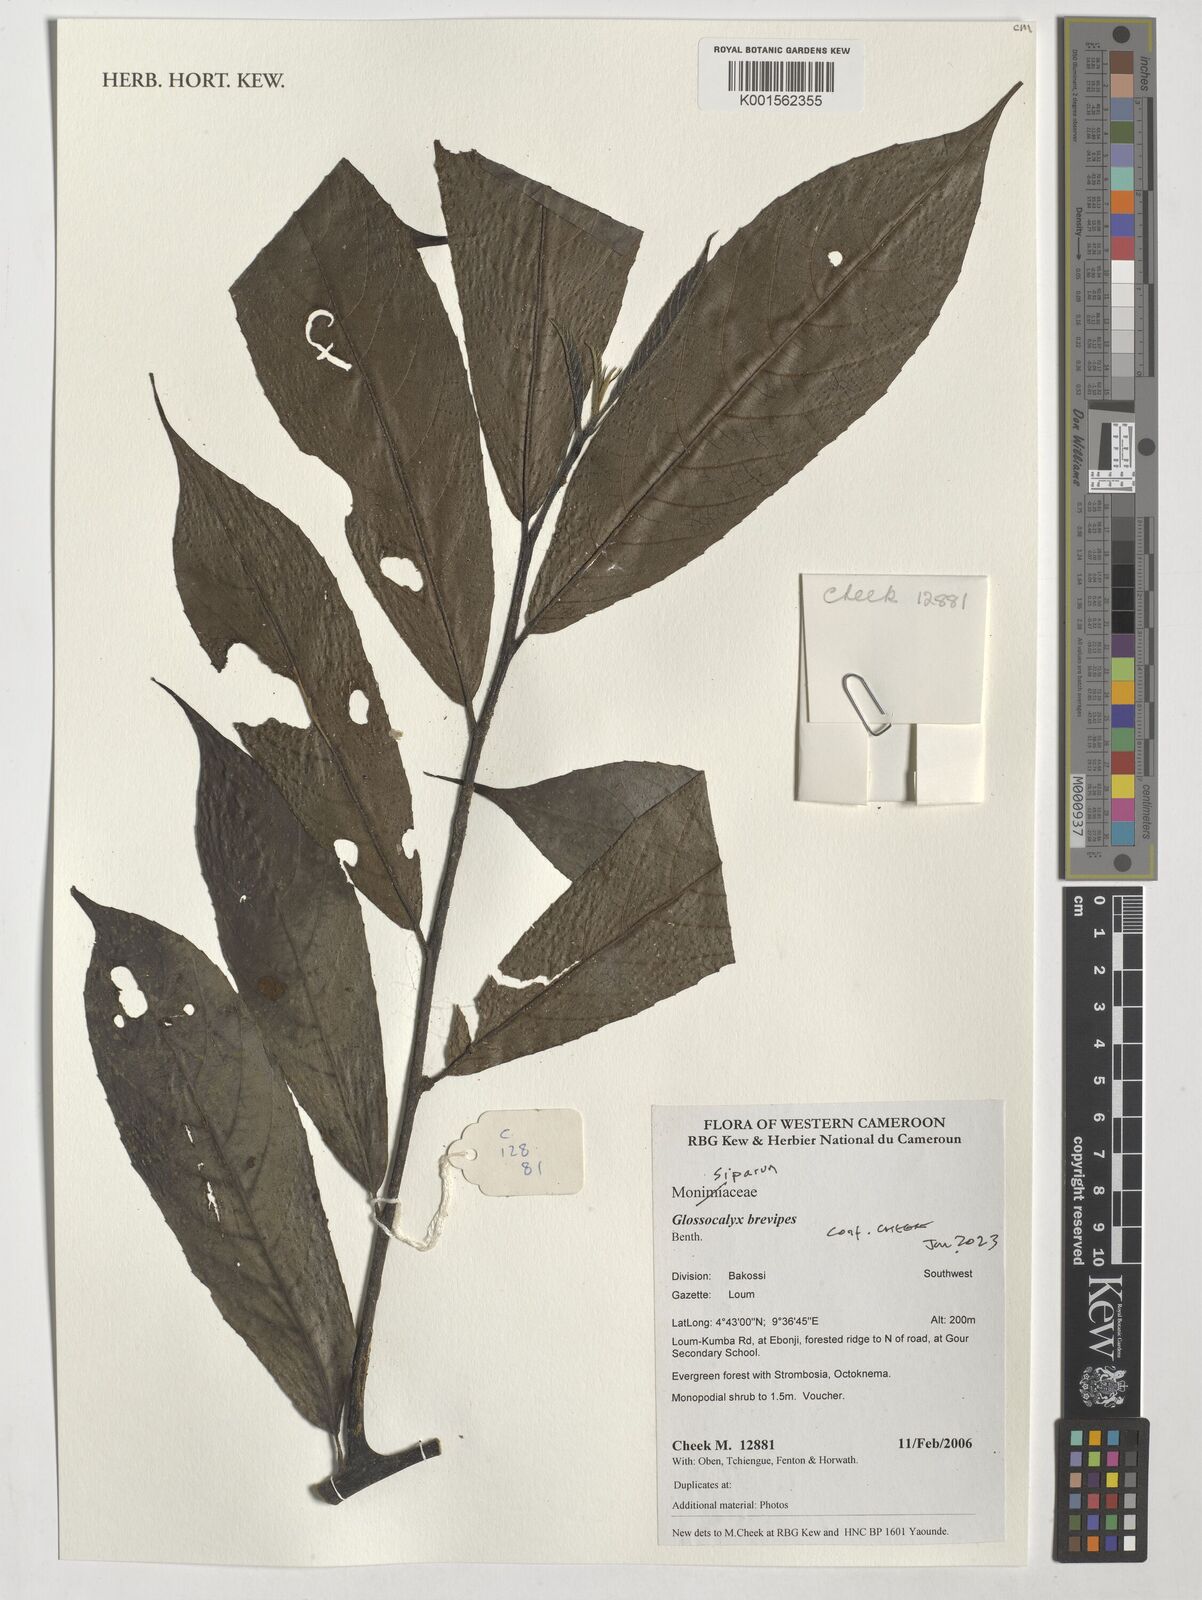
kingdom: Plantae
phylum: Tracheophyta
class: Magnoliopsida
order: Laurales
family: Siparunaceae
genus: Glossocalyx
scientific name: Glossocalyx brevipes
